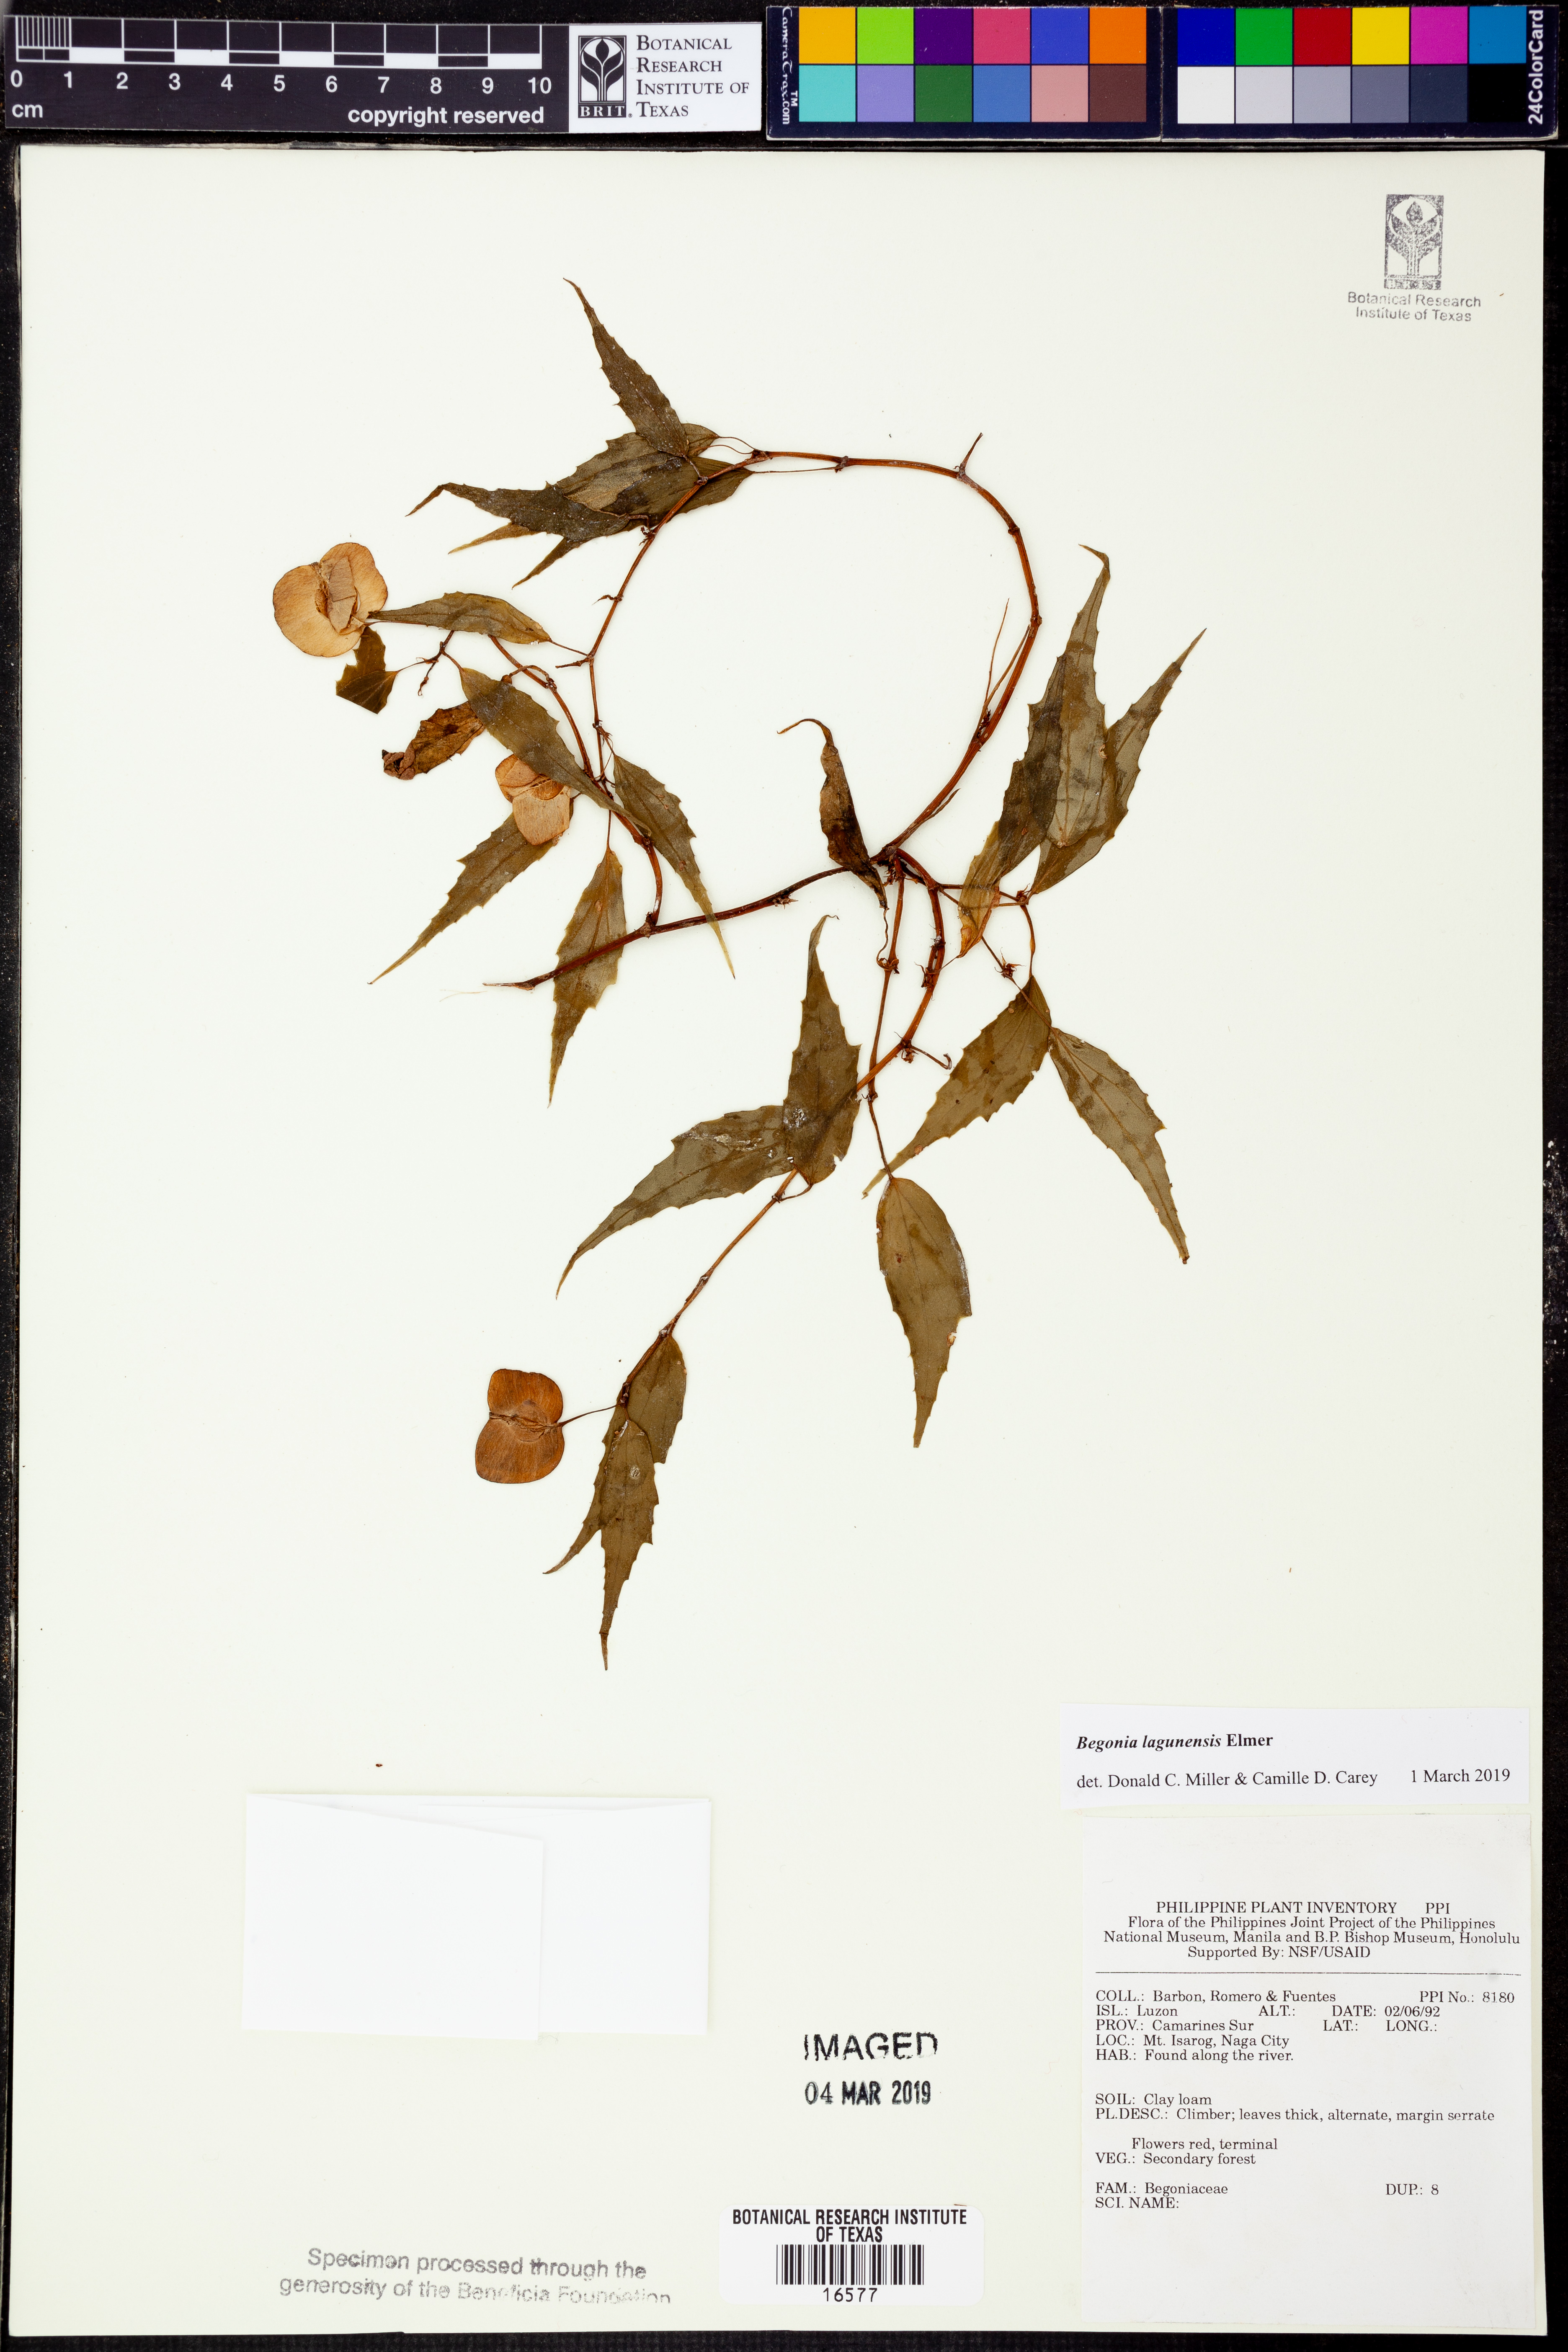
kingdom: Plantae
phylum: Tracheophyta
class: Magnoliopsida
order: Cucurbitales
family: Begoniaceae
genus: Begonia
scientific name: Begonia lagunensis
